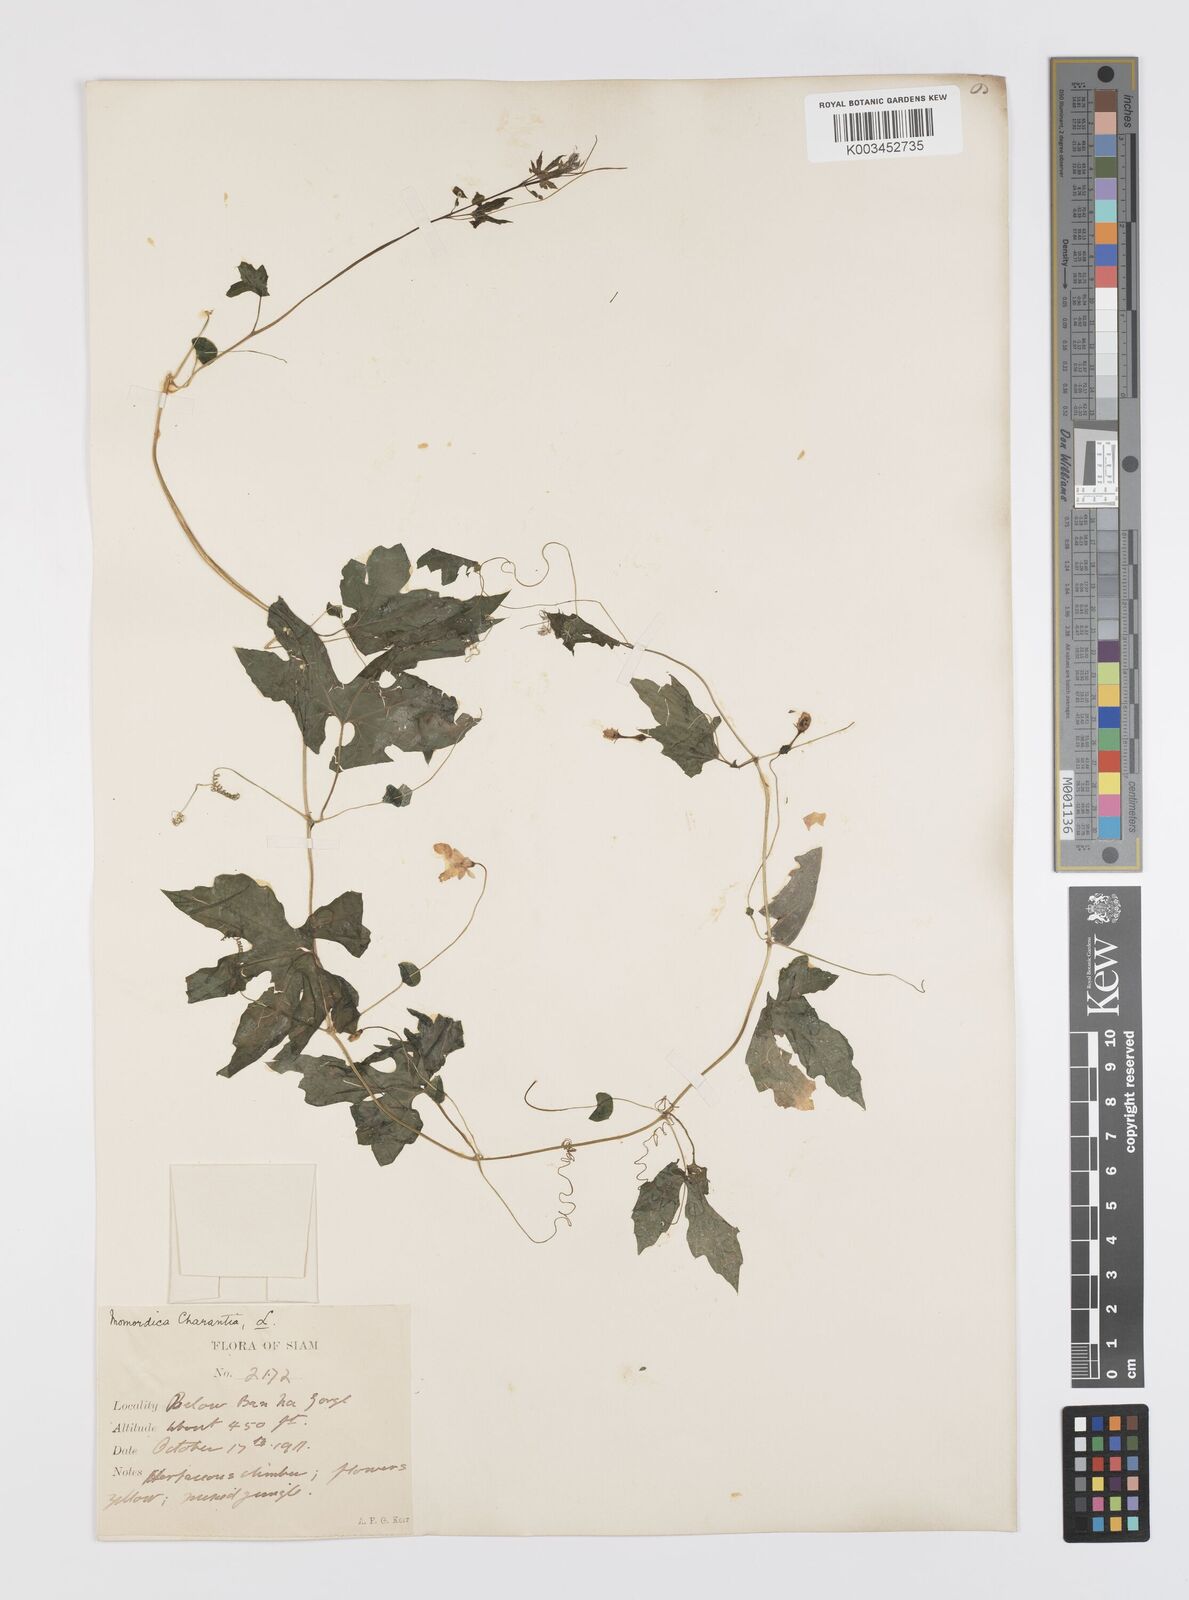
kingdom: Plantae
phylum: Tracheophyta
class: Magnoliopsida
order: Cucurbitales
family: Cucurbitaceae
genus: Momordica
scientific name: Momordica charantia
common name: Balsampear
